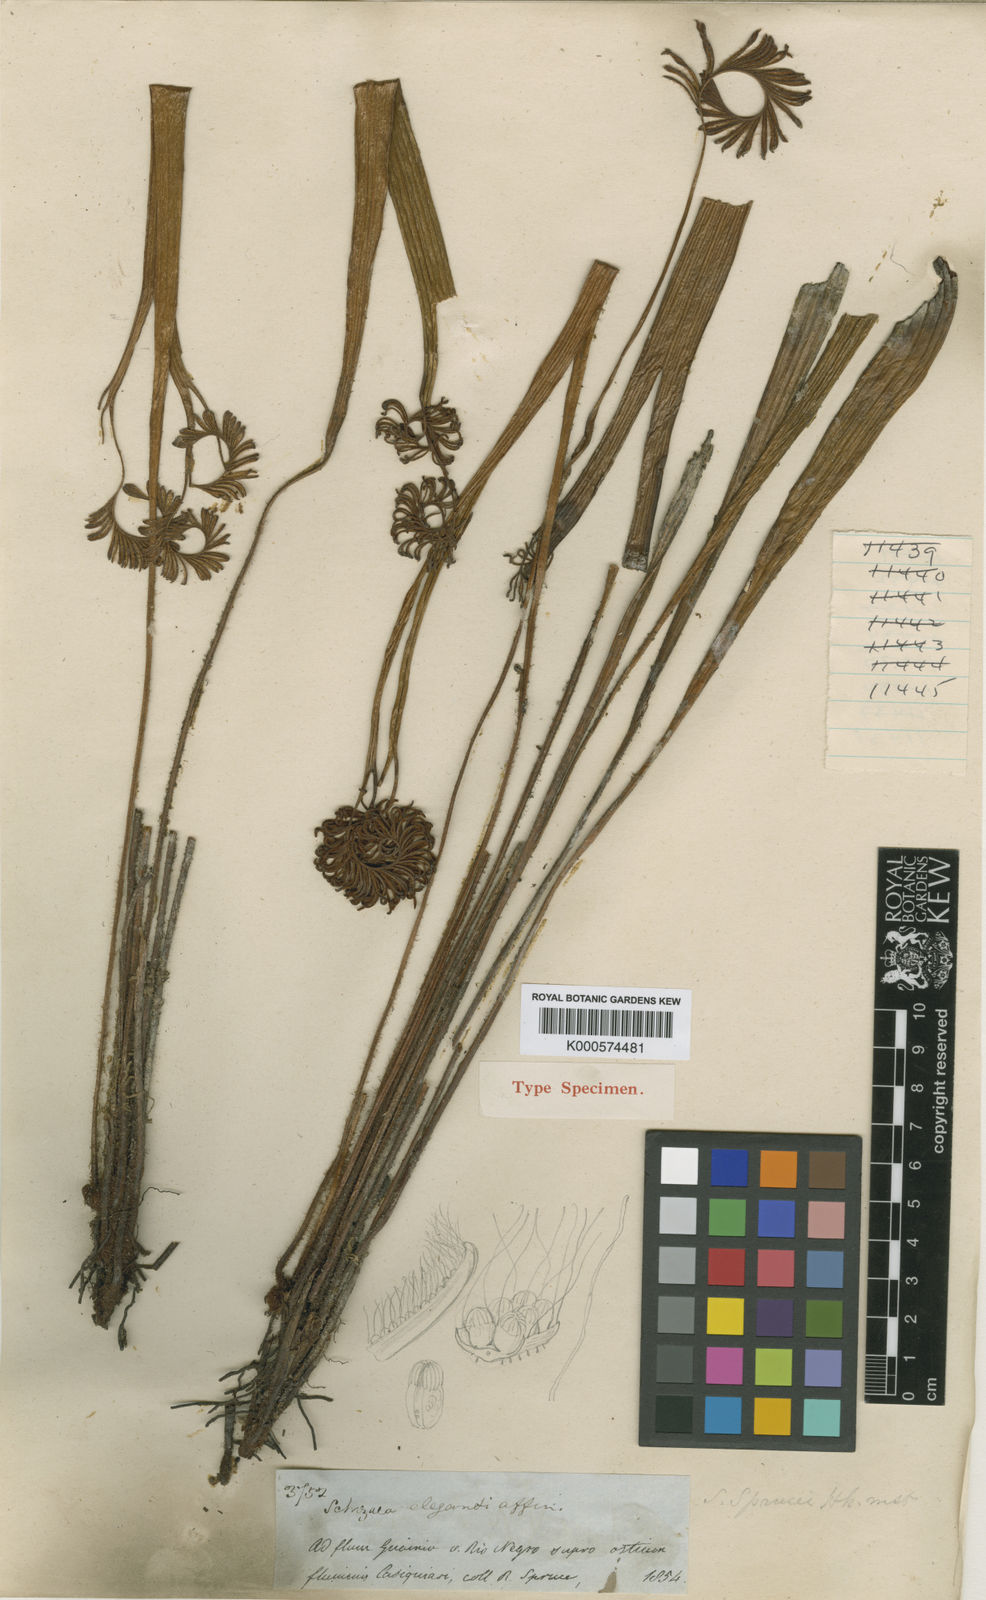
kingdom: Plantae
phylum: Tracheophyta
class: Polypodiopsida
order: Schizaeales
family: Schizaeaceae
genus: Schizaea
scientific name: Schizaea sprucei
